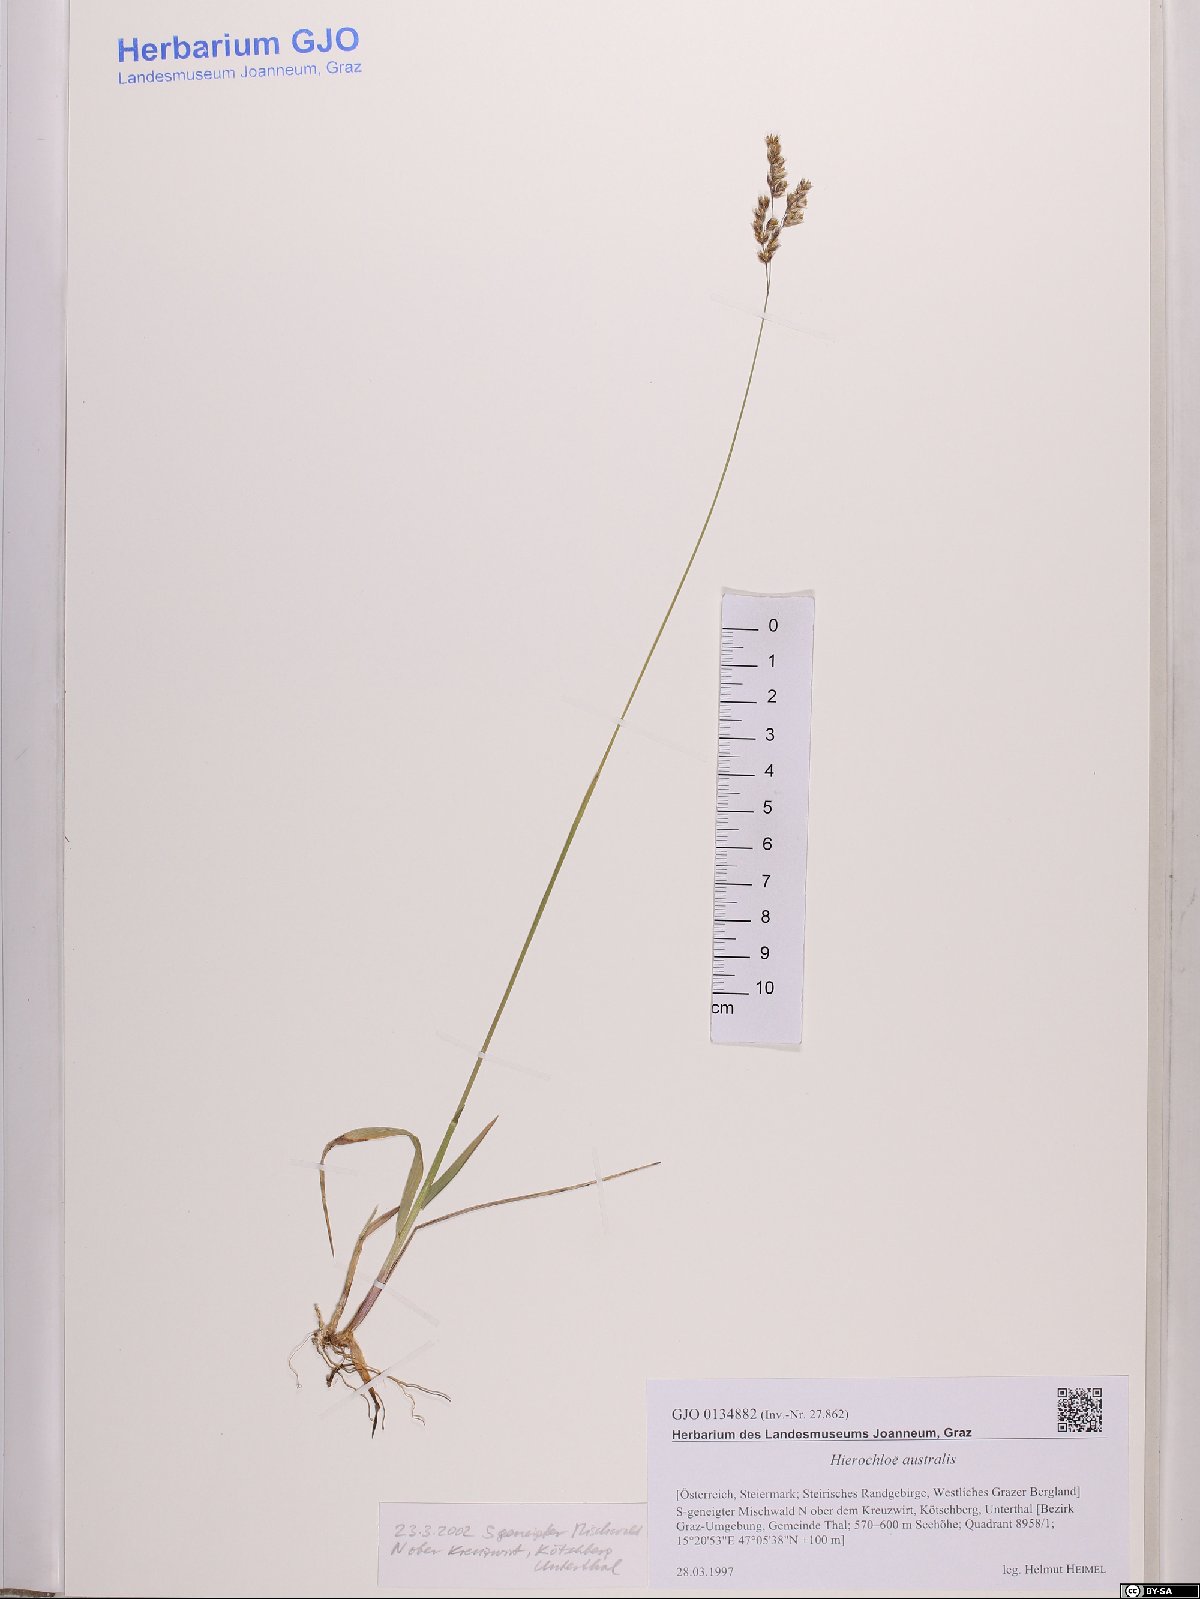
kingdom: Plantae
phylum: Tracheophyta
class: Liliopsida
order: Poales
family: Poaceae
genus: Anthoxanthum
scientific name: Anthoxanthum australe
